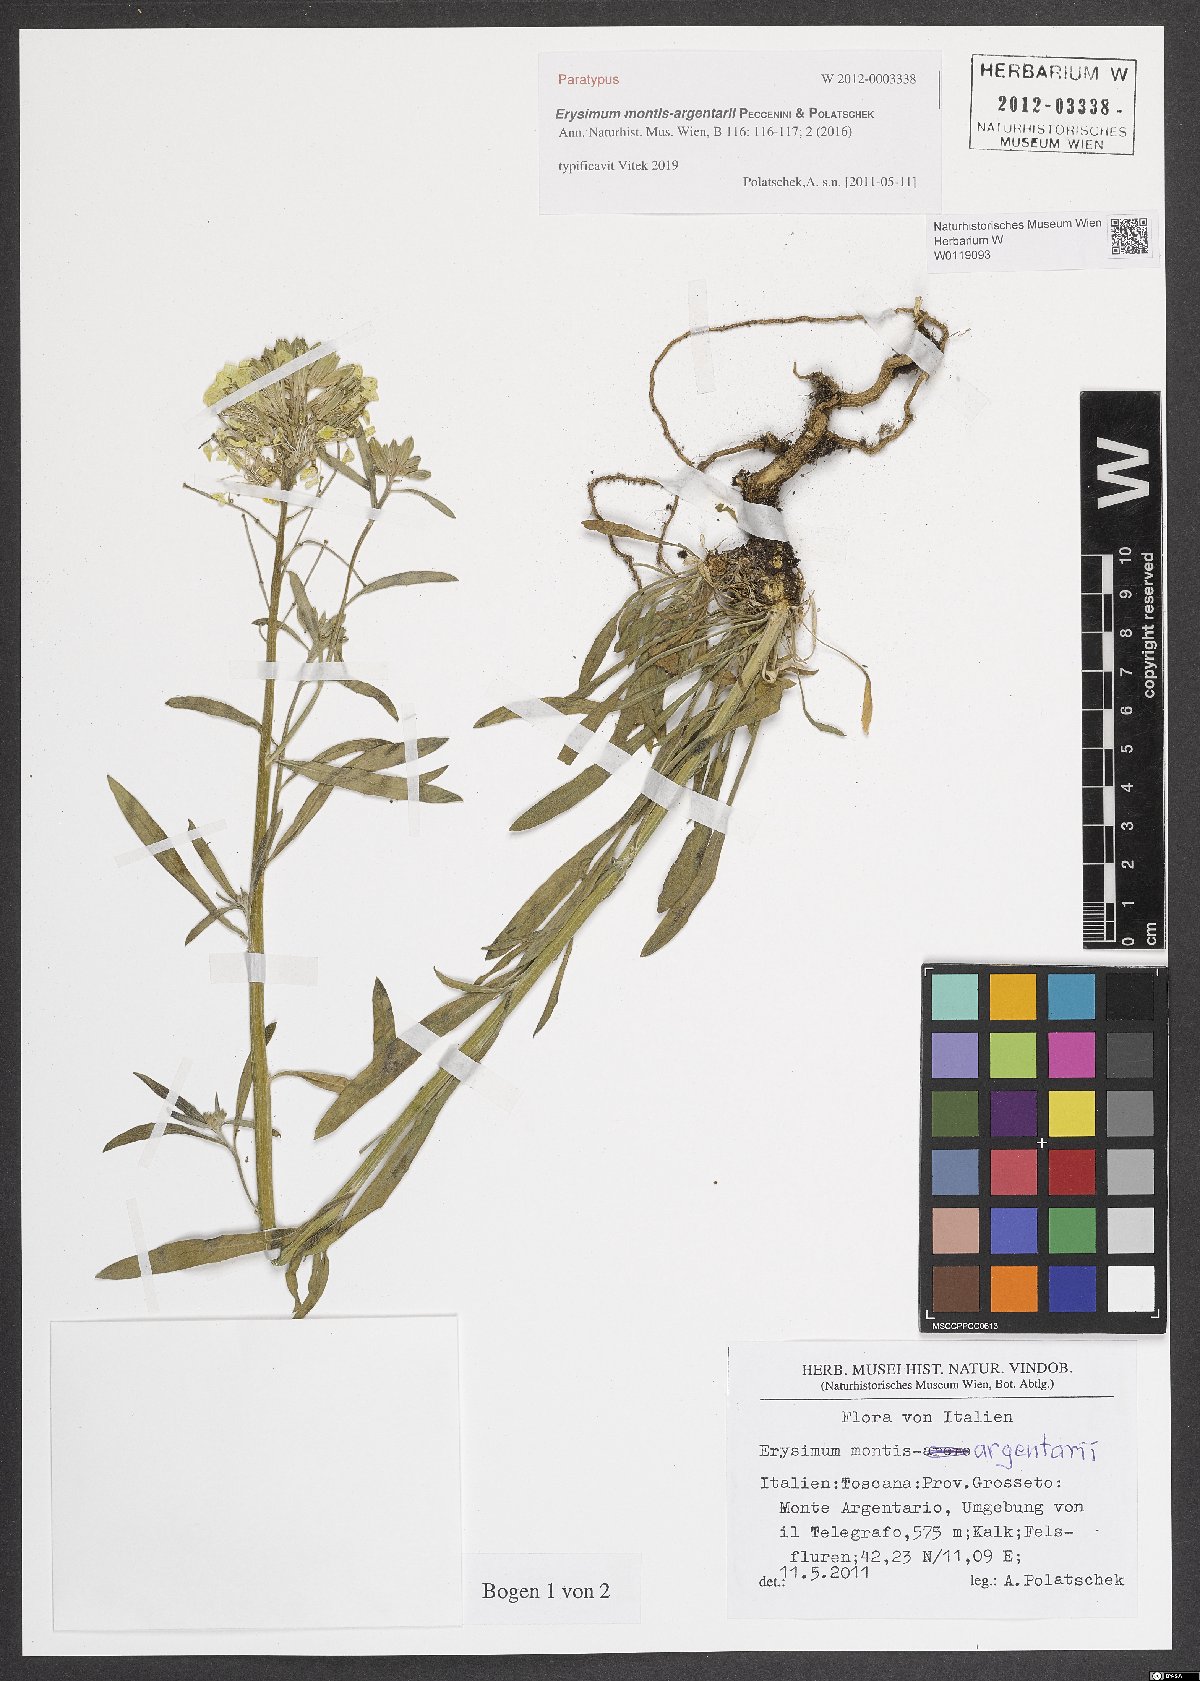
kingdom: Plantae
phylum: Tracheophyta
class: Magnoliopsida
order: Brassicales
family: Brassicaceae
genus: Erysimum
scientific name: Erysimum maremmanum
